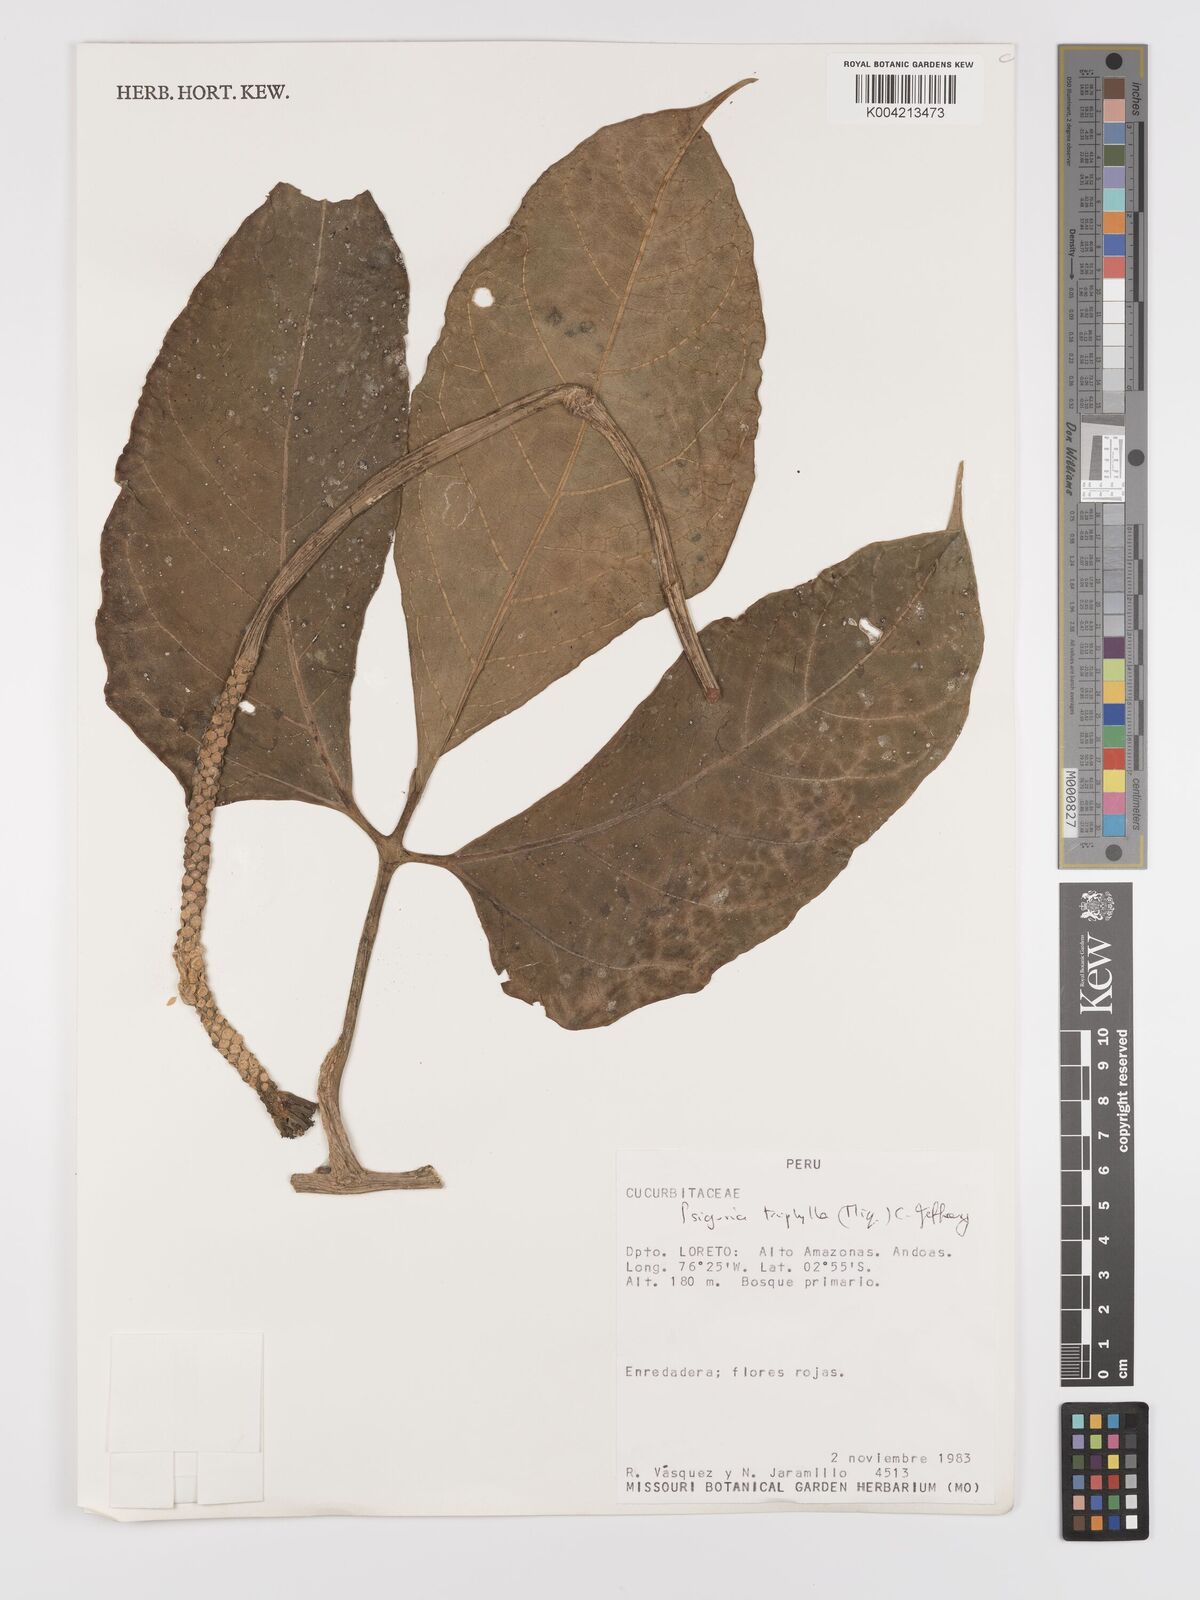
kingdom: Plantae
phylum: Tracheophyta
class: Magnoliopsida
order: Cucurbitales
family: Cucurbitaceae
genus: Psiguria
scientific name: Psiguria triphylla
